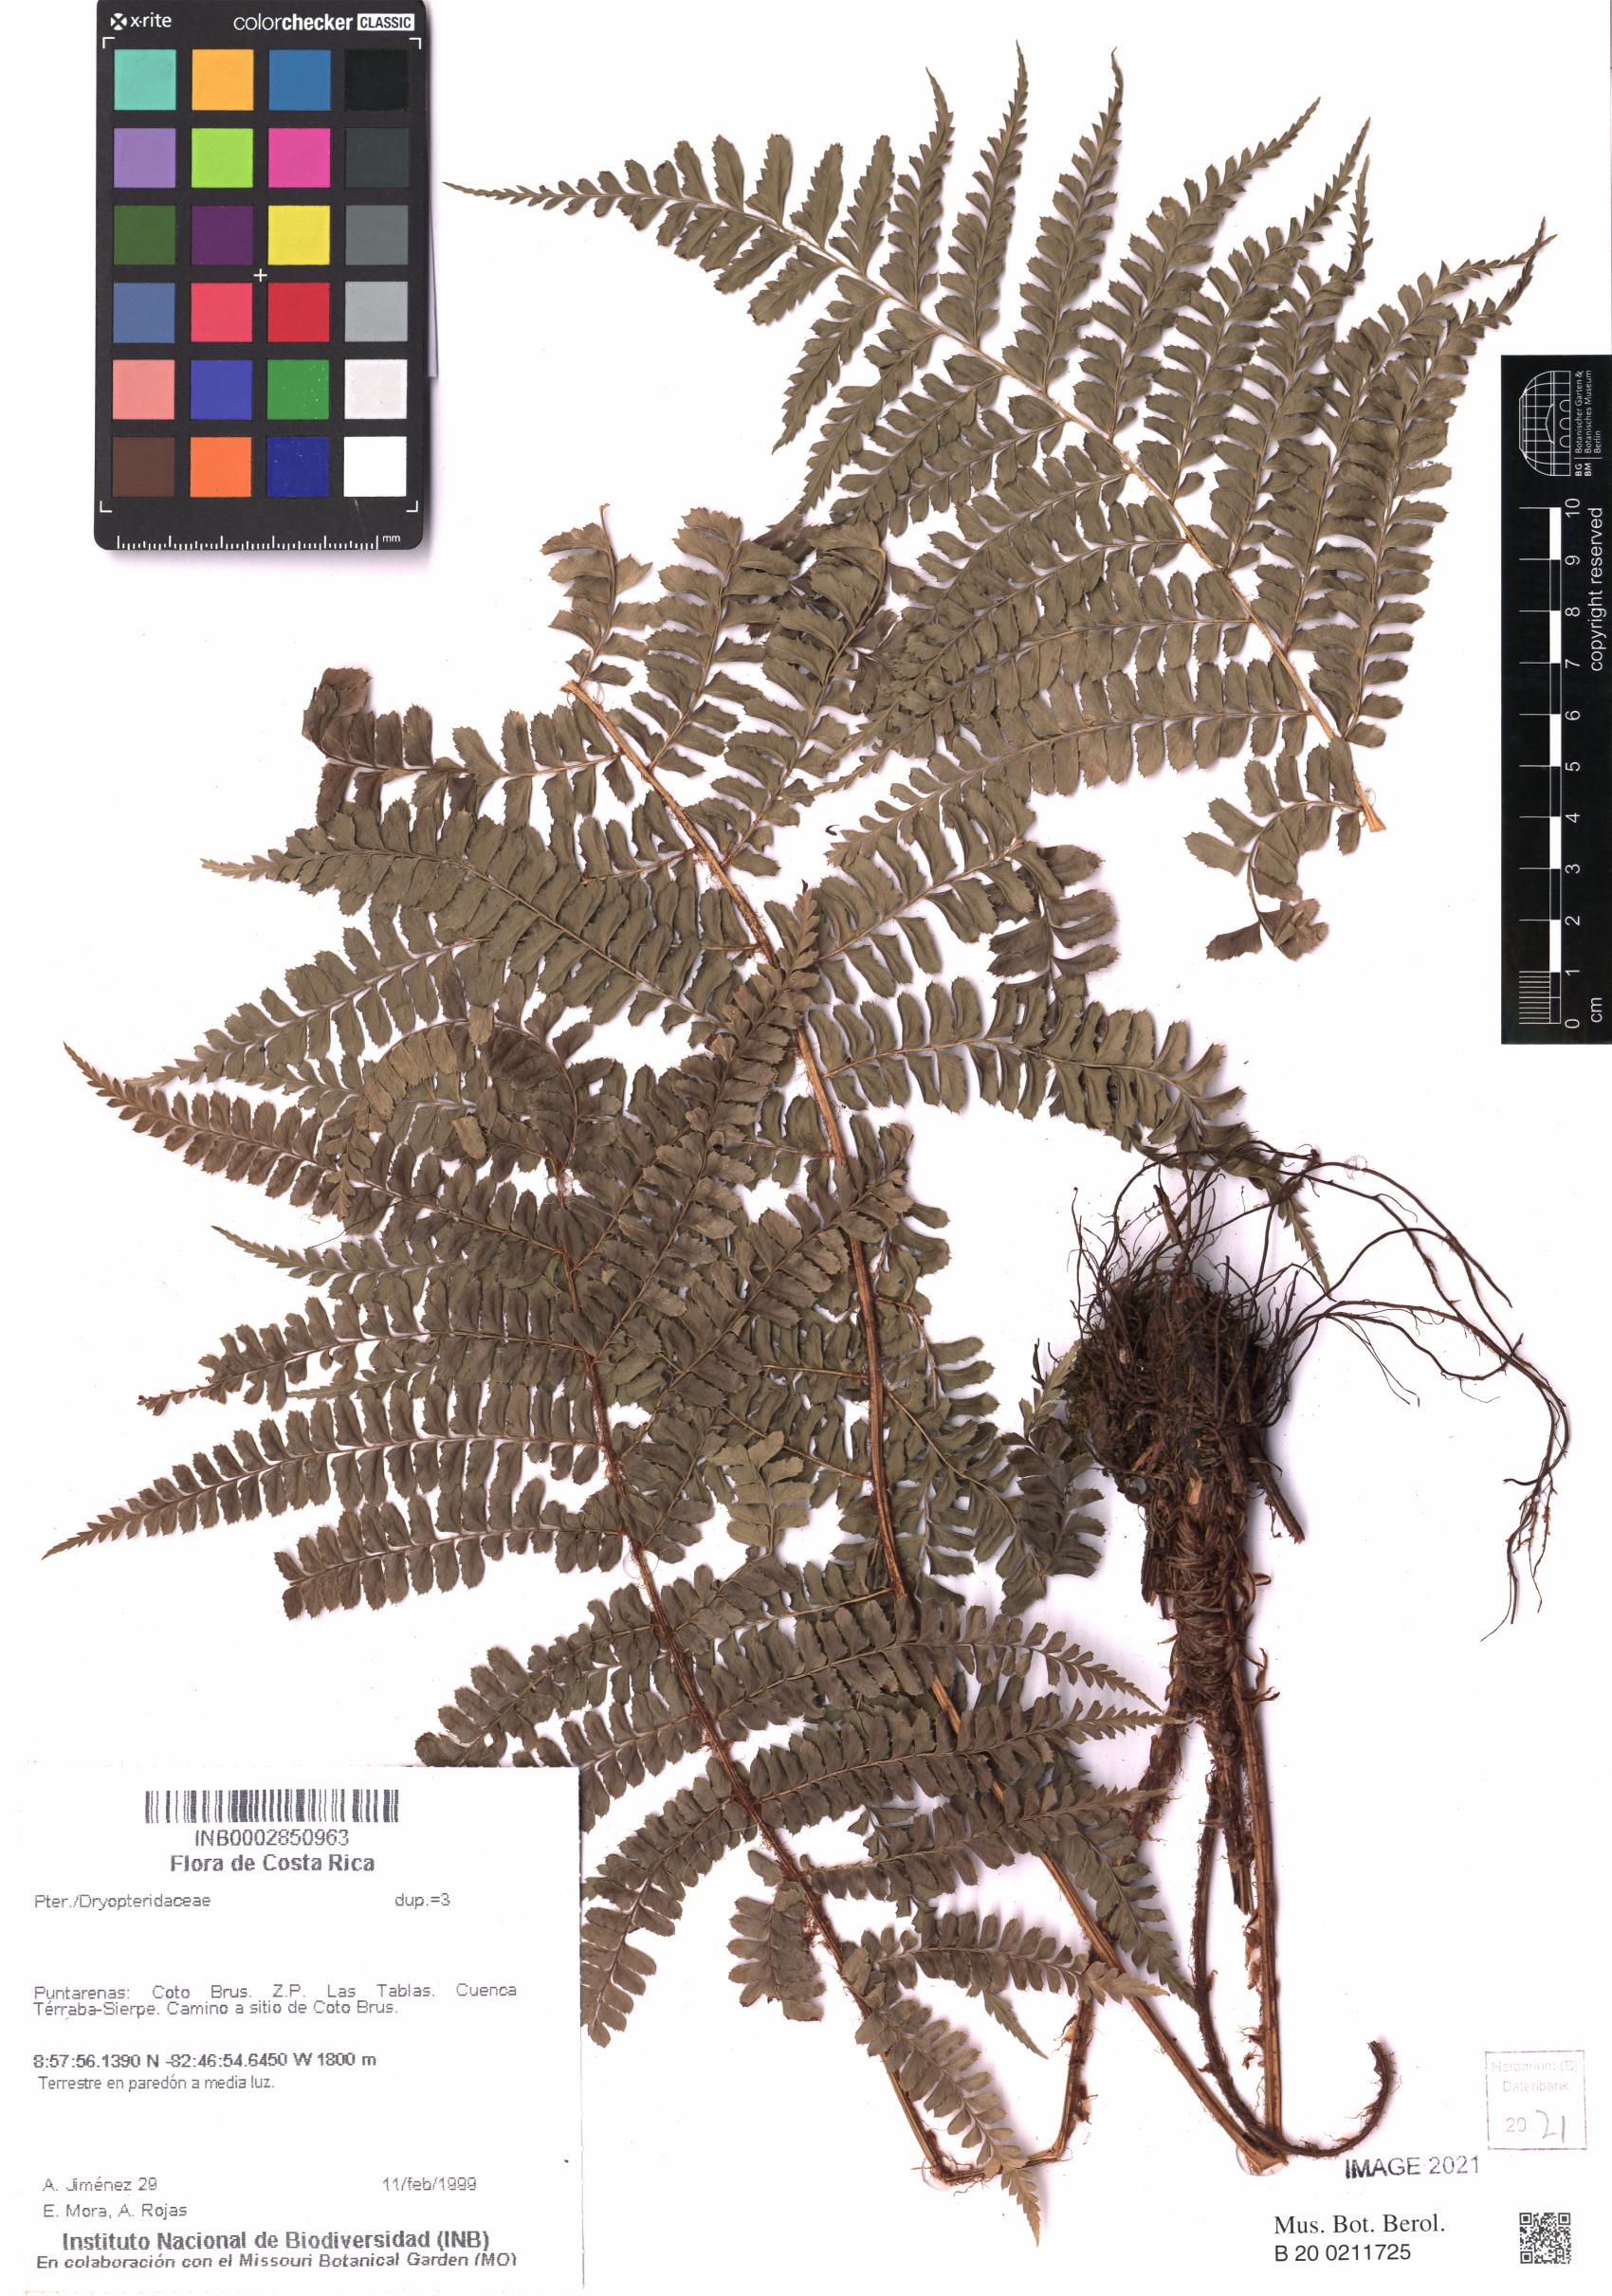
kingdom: Plantae
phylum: Tracheophyta
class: Polypodiopsida
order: Polypodiales
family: Dryopteridaceae
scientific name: Dryopteridaceae
